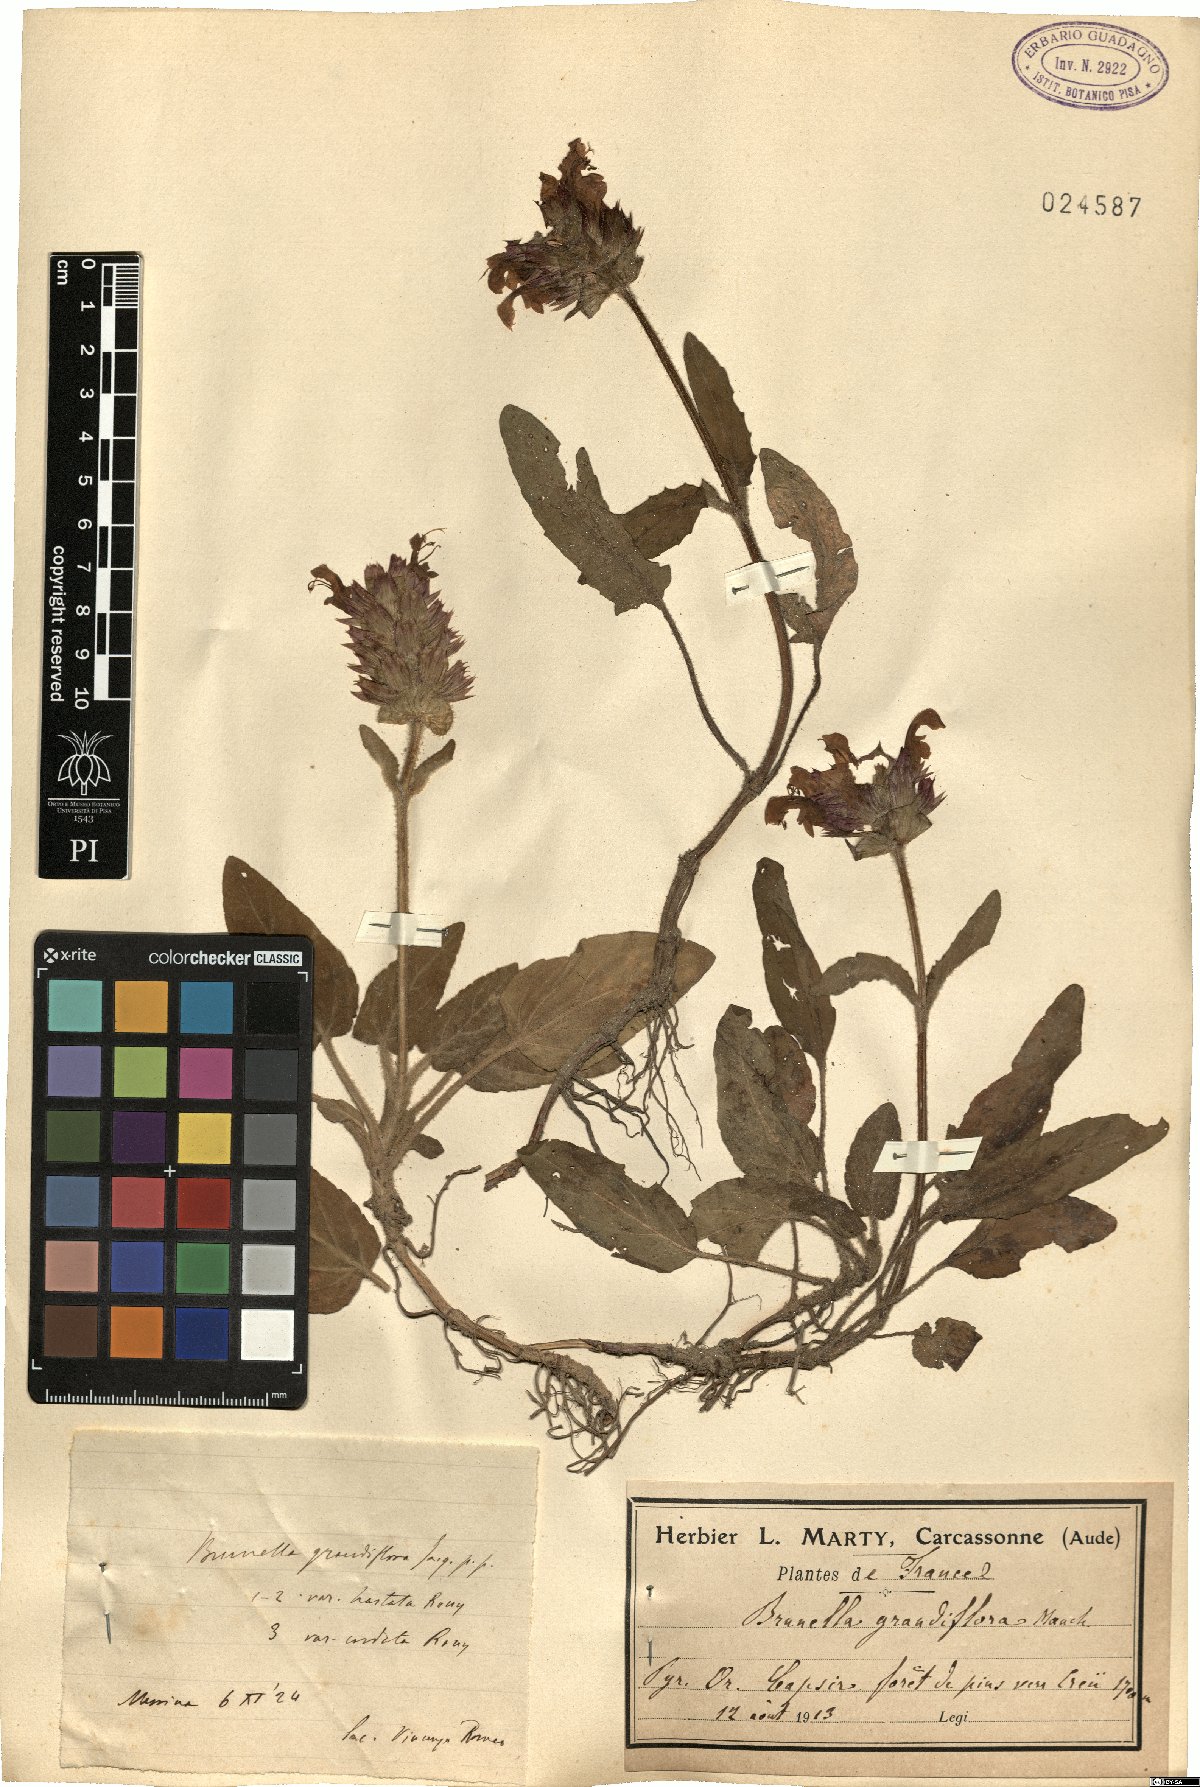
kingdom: Plantae
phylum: Tracheophyta
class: Magnoliopsida
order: Lamiales
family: Lamiaceae
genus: Prunella
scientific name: Prunella grandiflora
